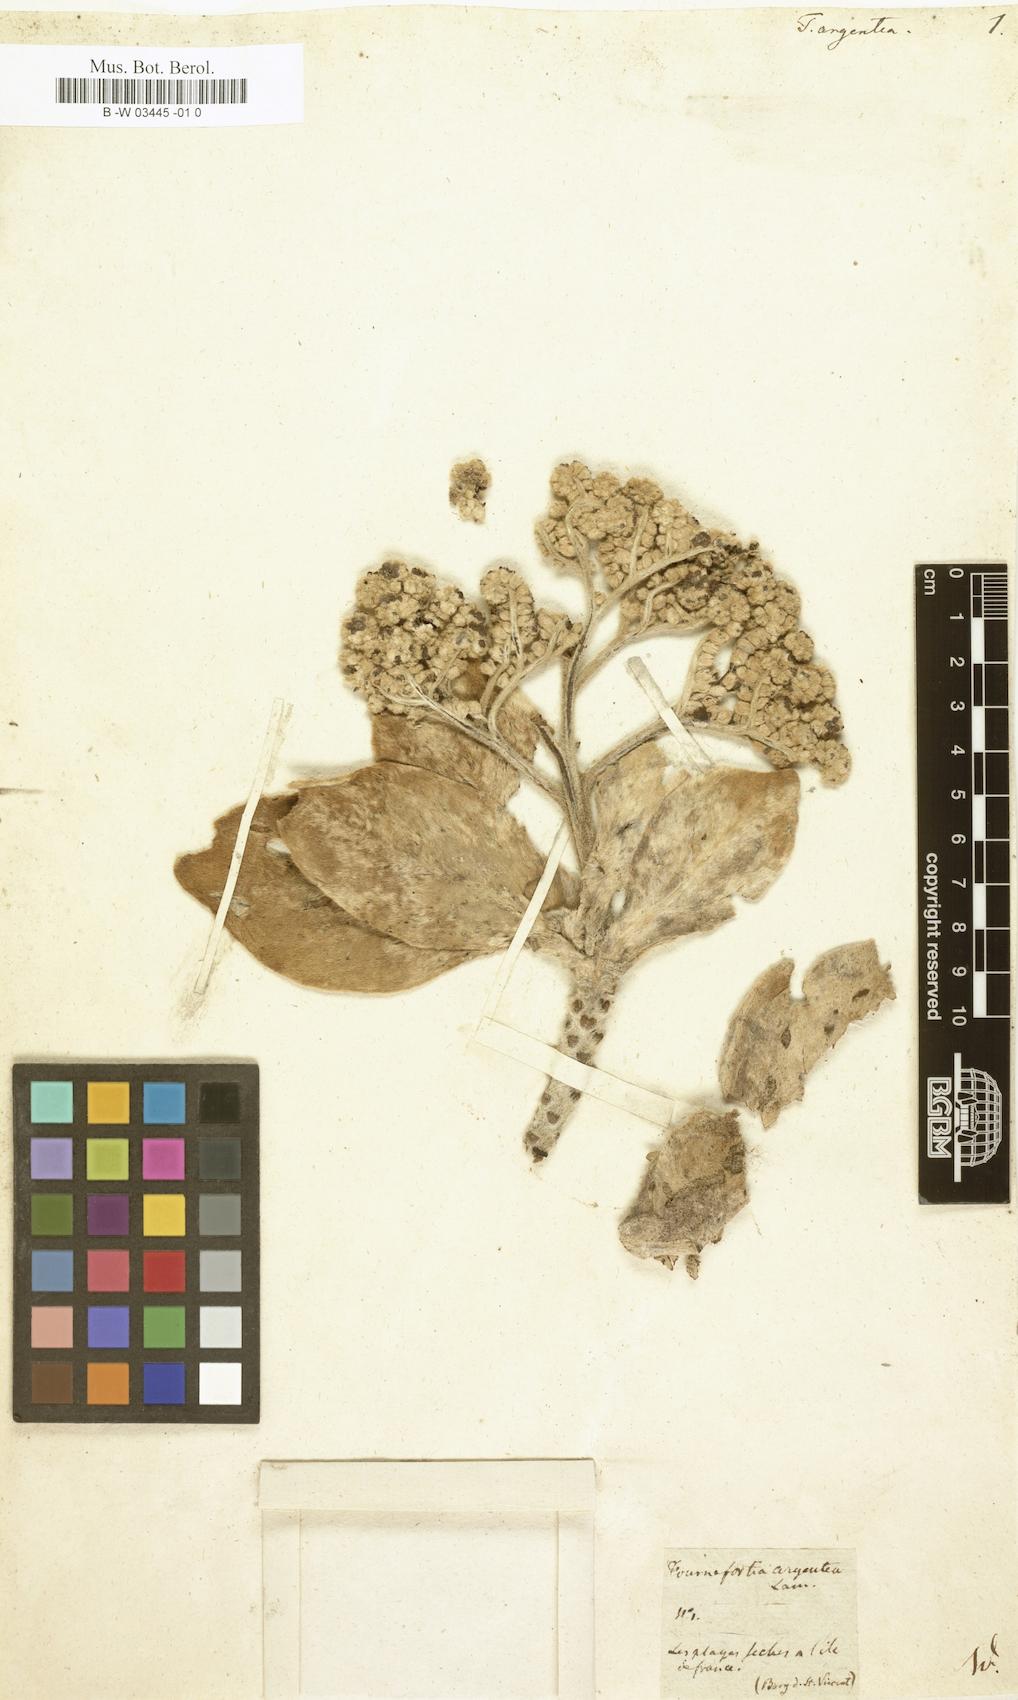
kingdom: Plantae
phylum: Tracheophyta
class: Magnoliopsida
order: Boraginales
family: Heliotropiaceae
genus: Heliotropium
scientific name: Heliotropium velutinum
